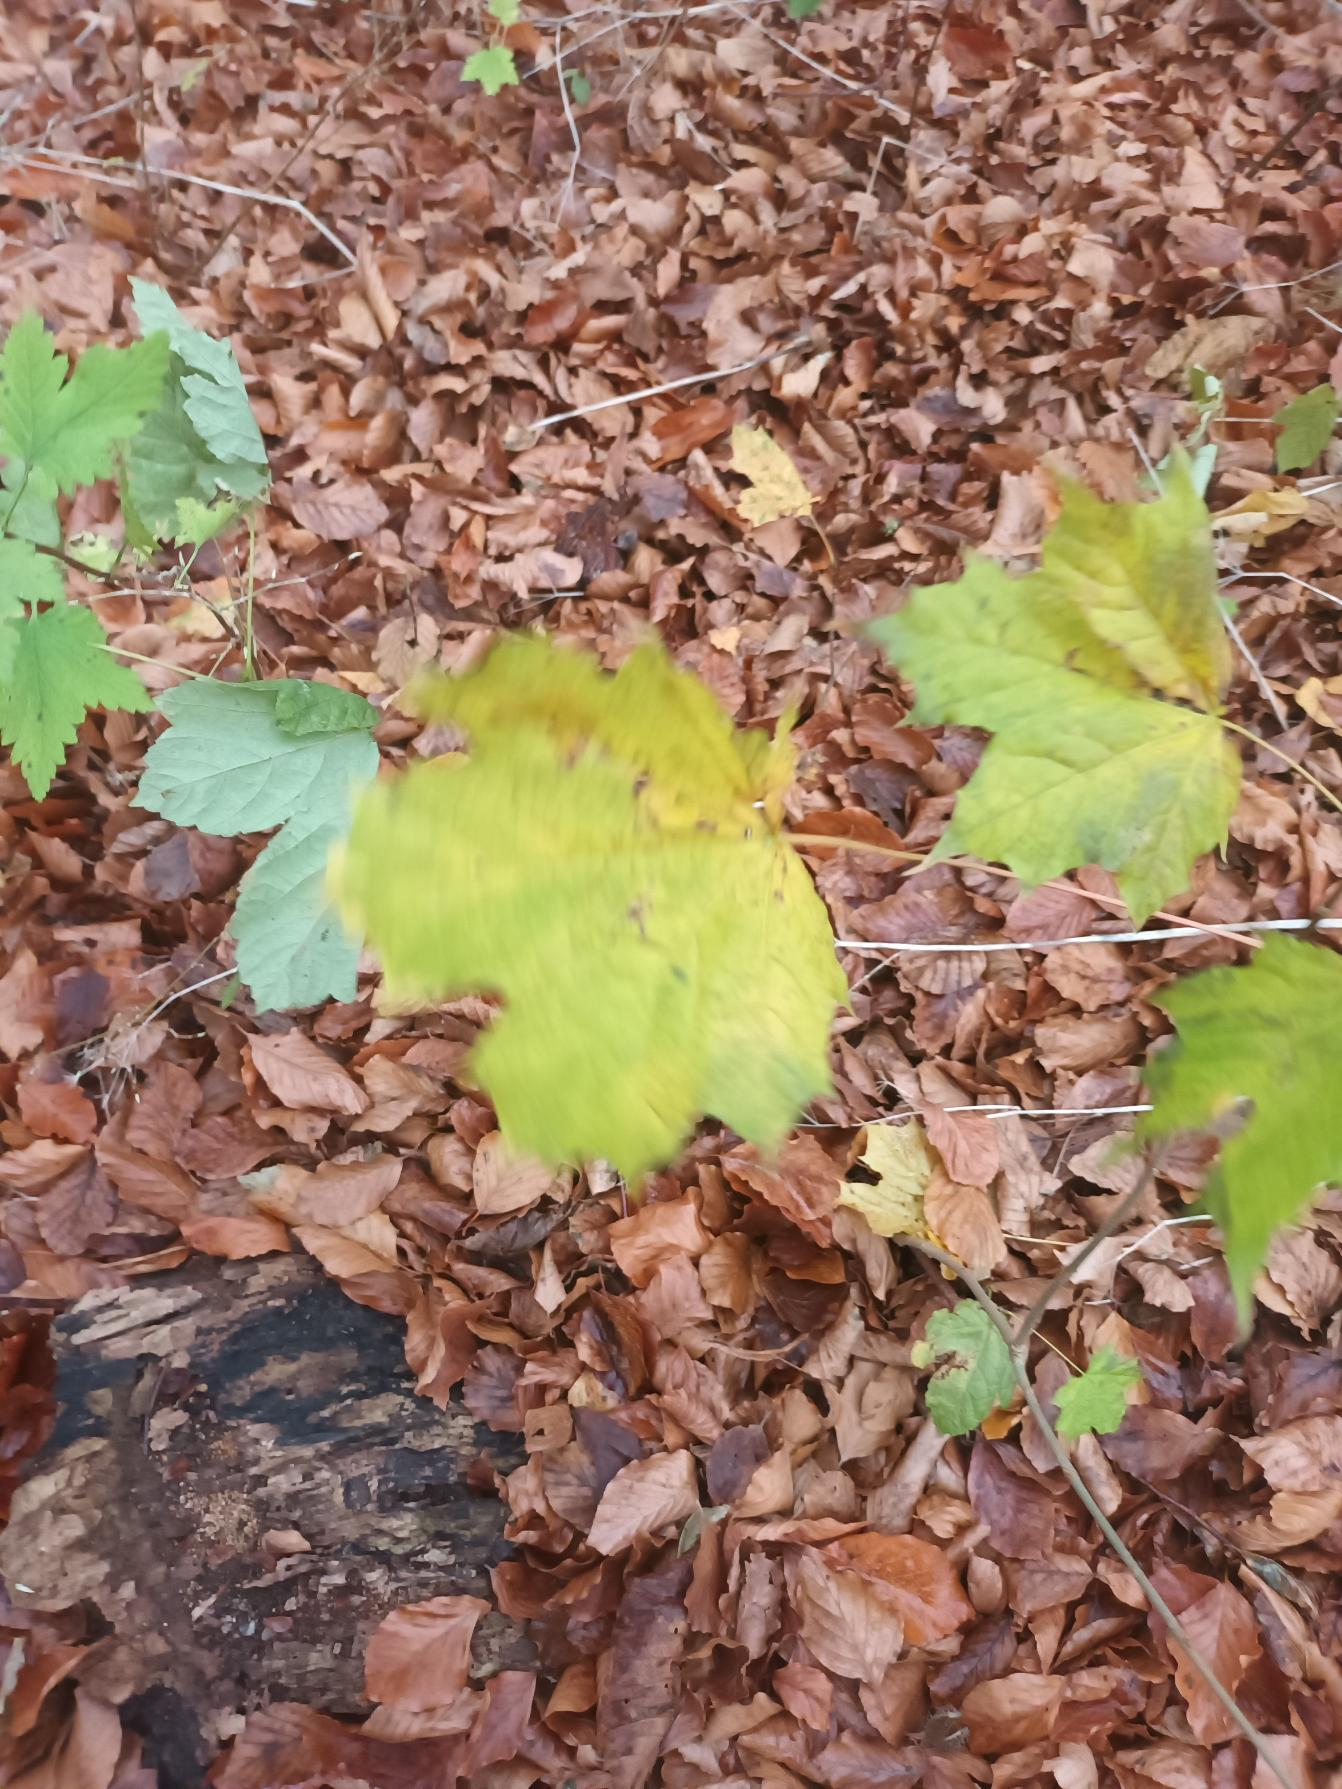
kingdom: Plantae
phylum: Tracheophyta
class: Magnoliopsida
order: Sapindales
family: Sapindaceae
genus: Acer
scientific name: Acer platanoides
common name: Spids-løn
